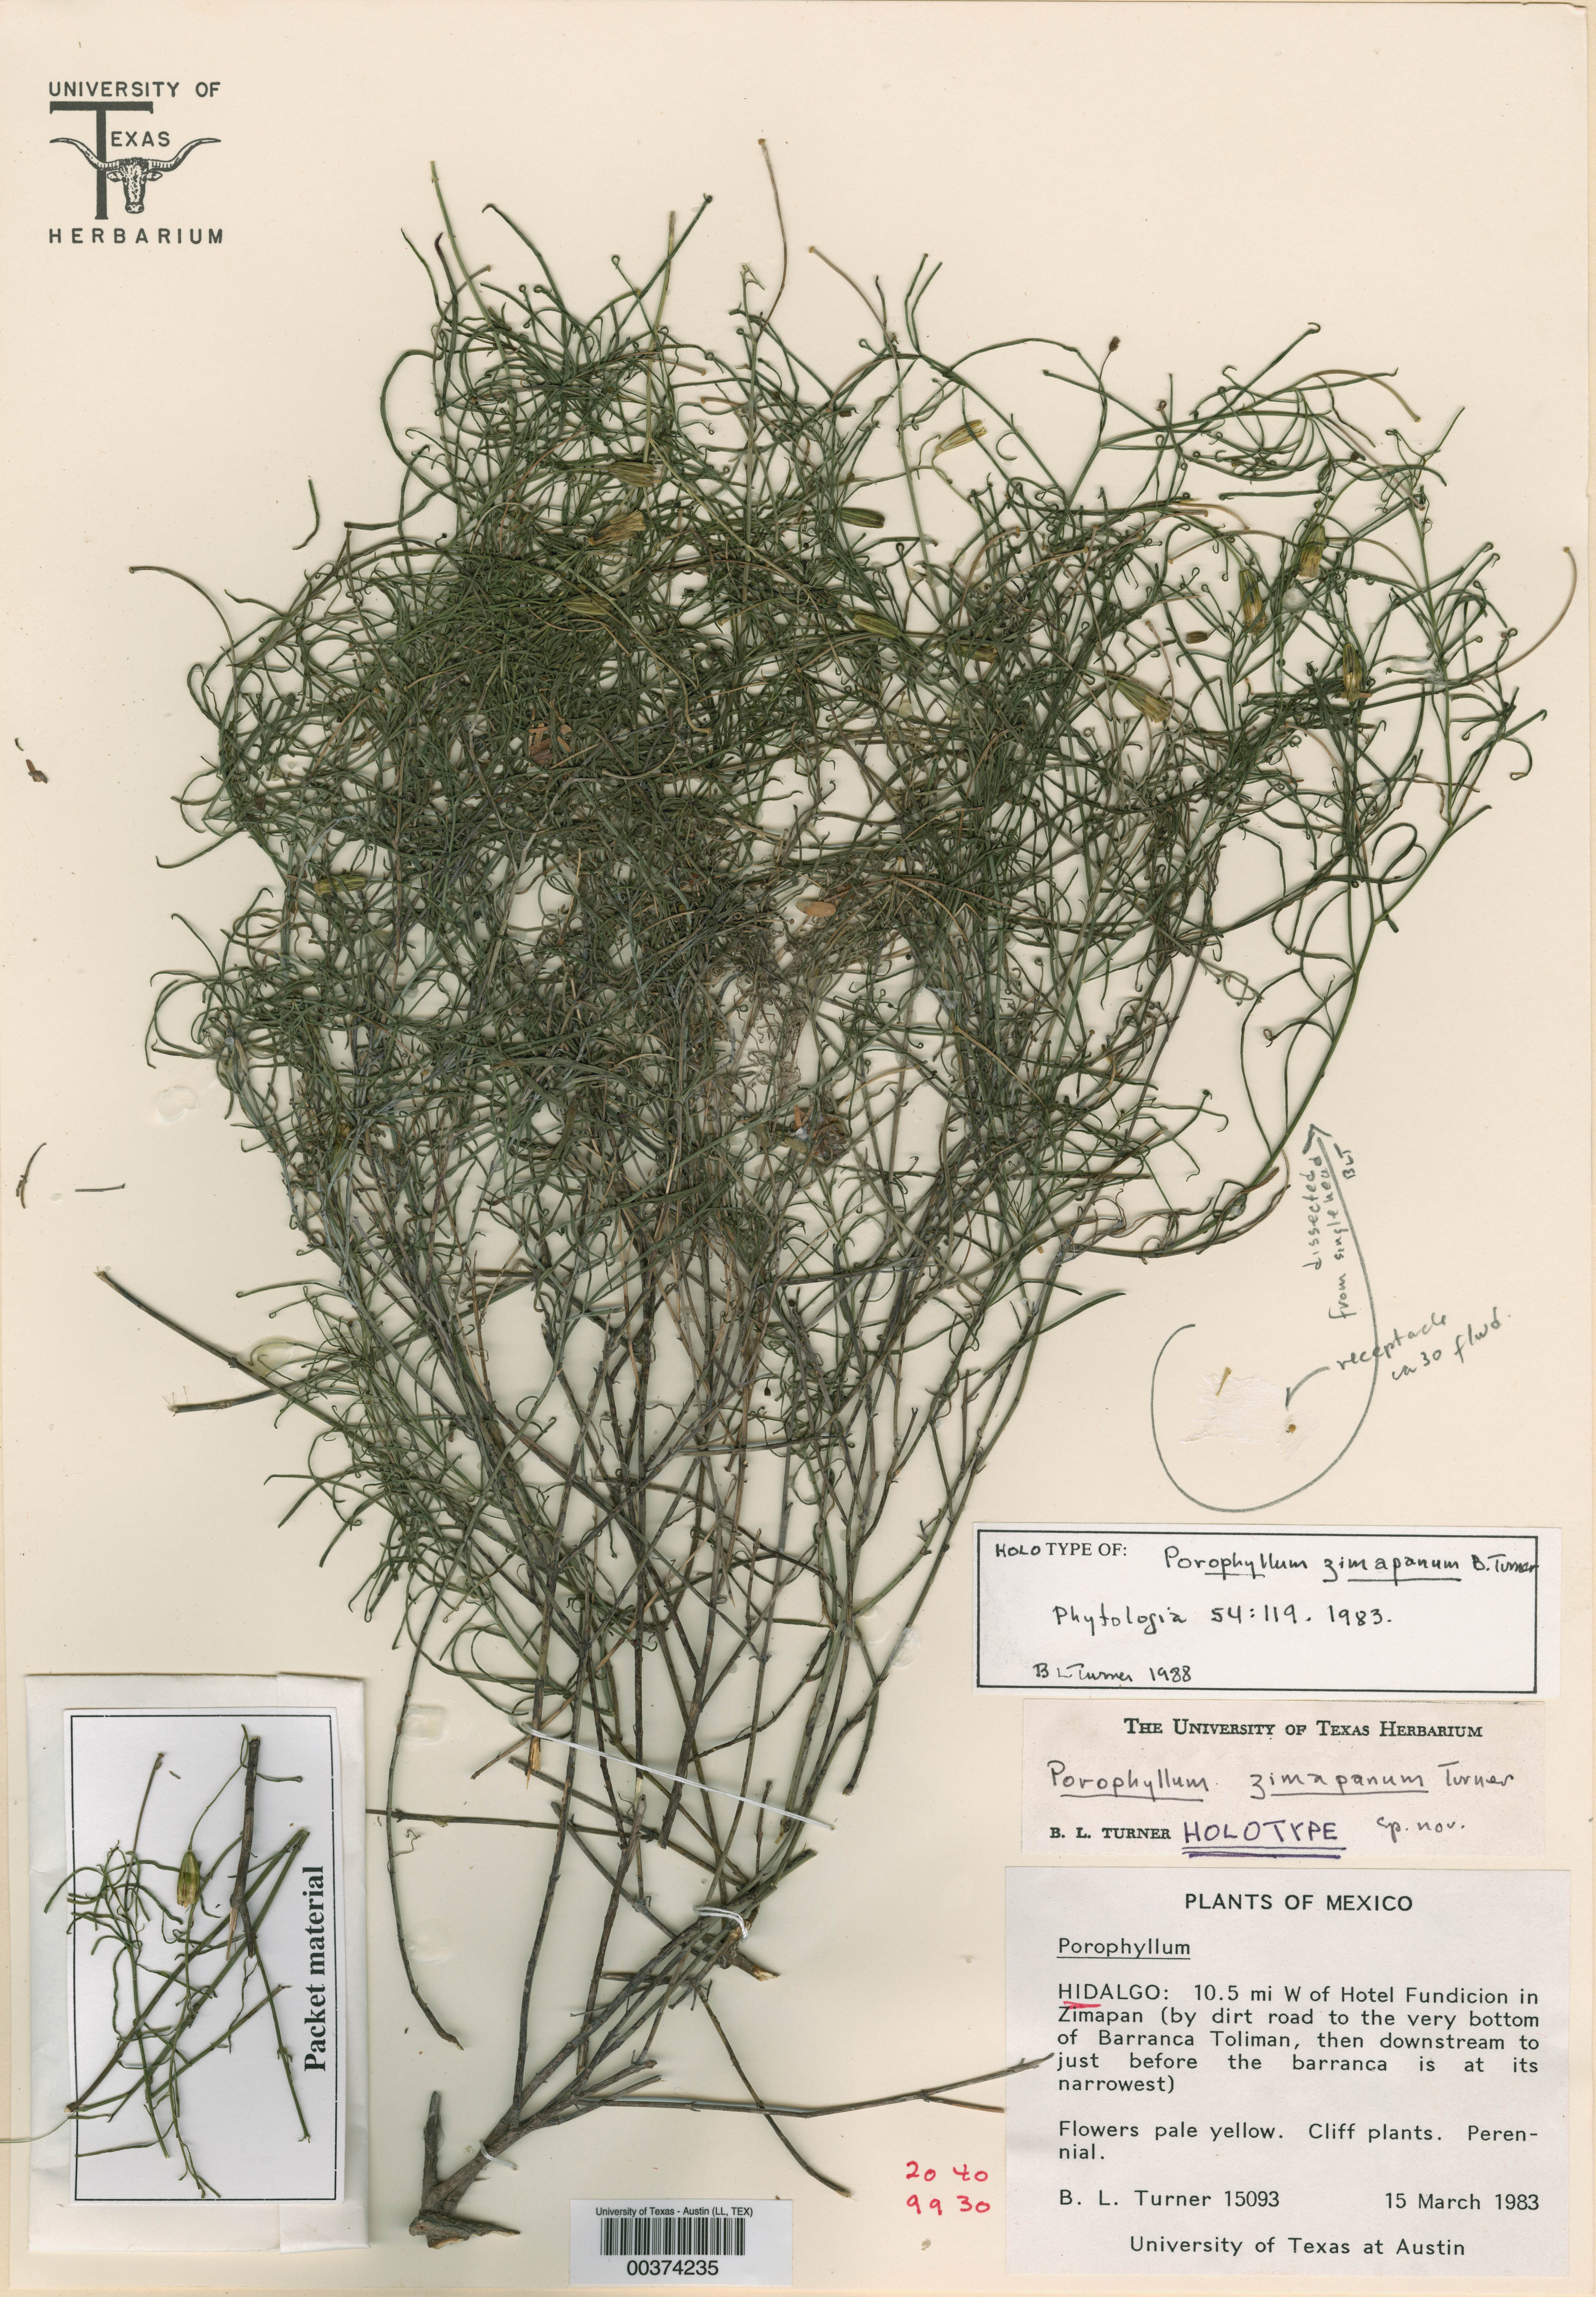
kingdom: Plantae
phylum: Tracheophyta
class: Magnoliopsida
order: Asterales
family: Asteraceae
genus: Porophyllum
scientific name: Porophyllum zimapanum
